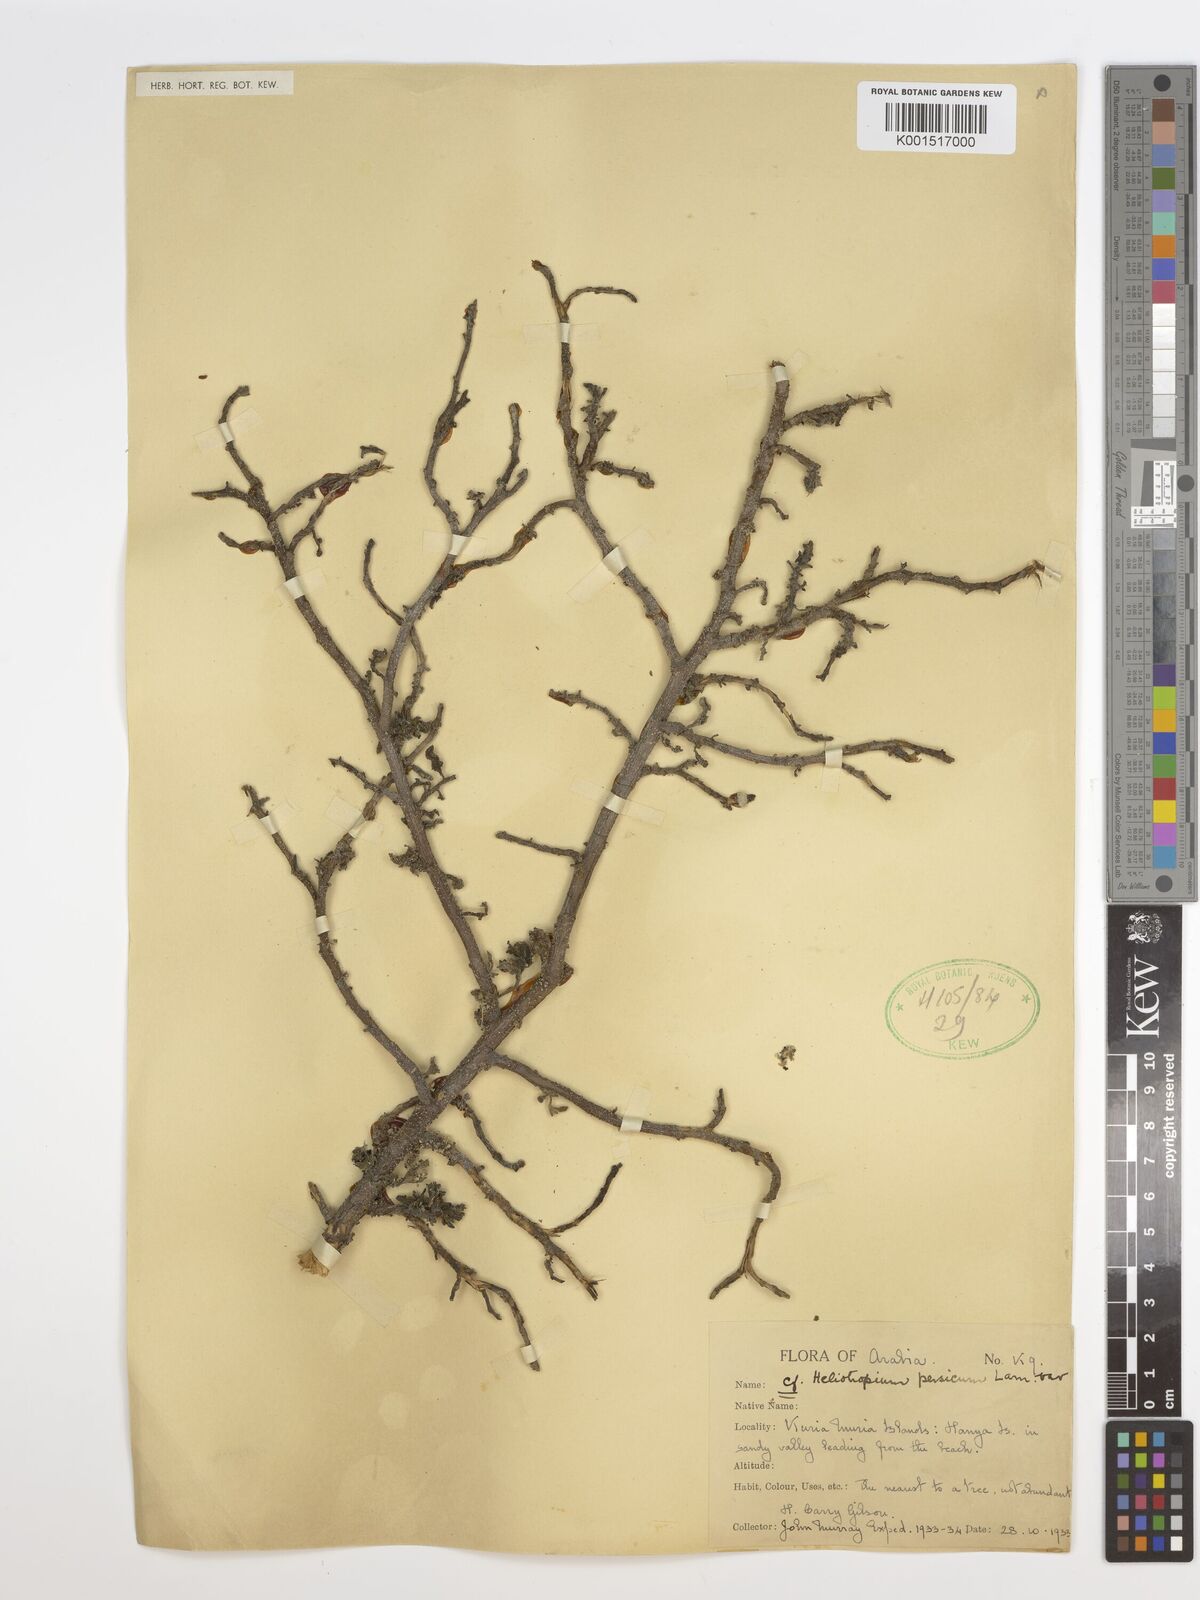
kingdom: Plantae
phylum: Tracheophyta
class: Magnoliopsida
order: Boraginales
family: Heliotropiaceae
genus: Heliotropium
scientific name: Heliotropium ramosissimum
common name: Wavy heliotrope
